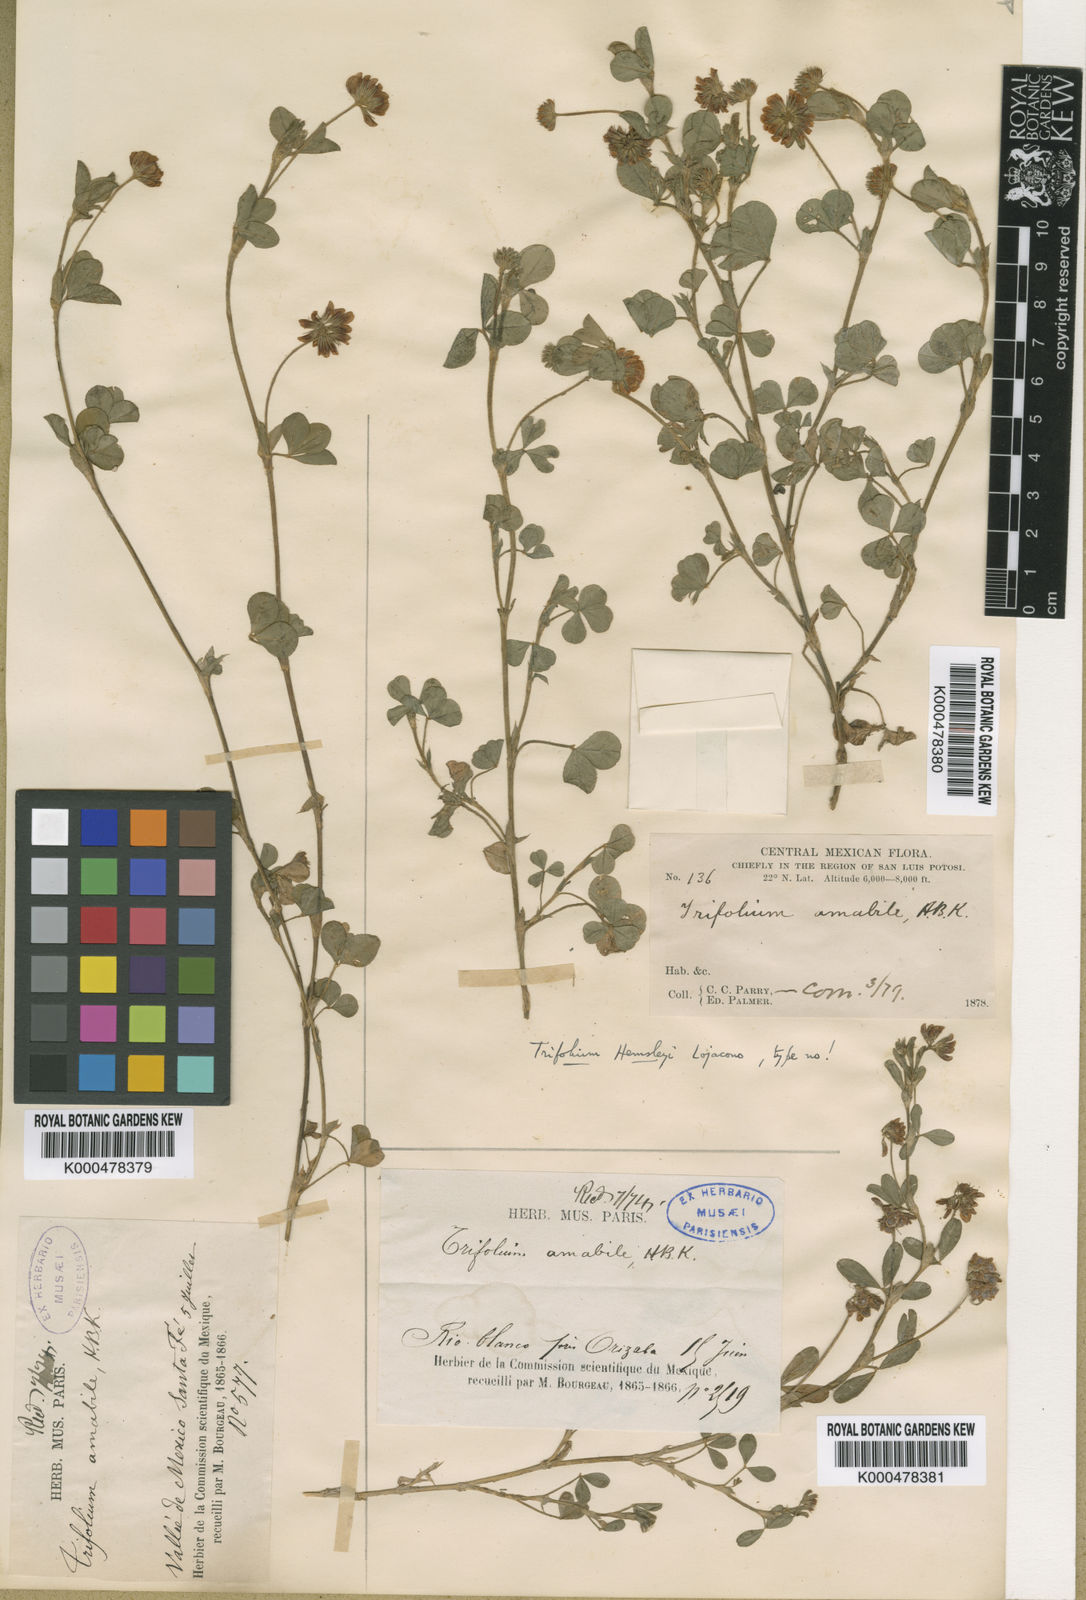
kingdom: Plantae
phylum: Tracheophyta
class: Magnoliopsida
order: Fabales
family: Fabaceae
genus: Trifolium
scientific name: Trifolium amabile
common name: Aztec clover
